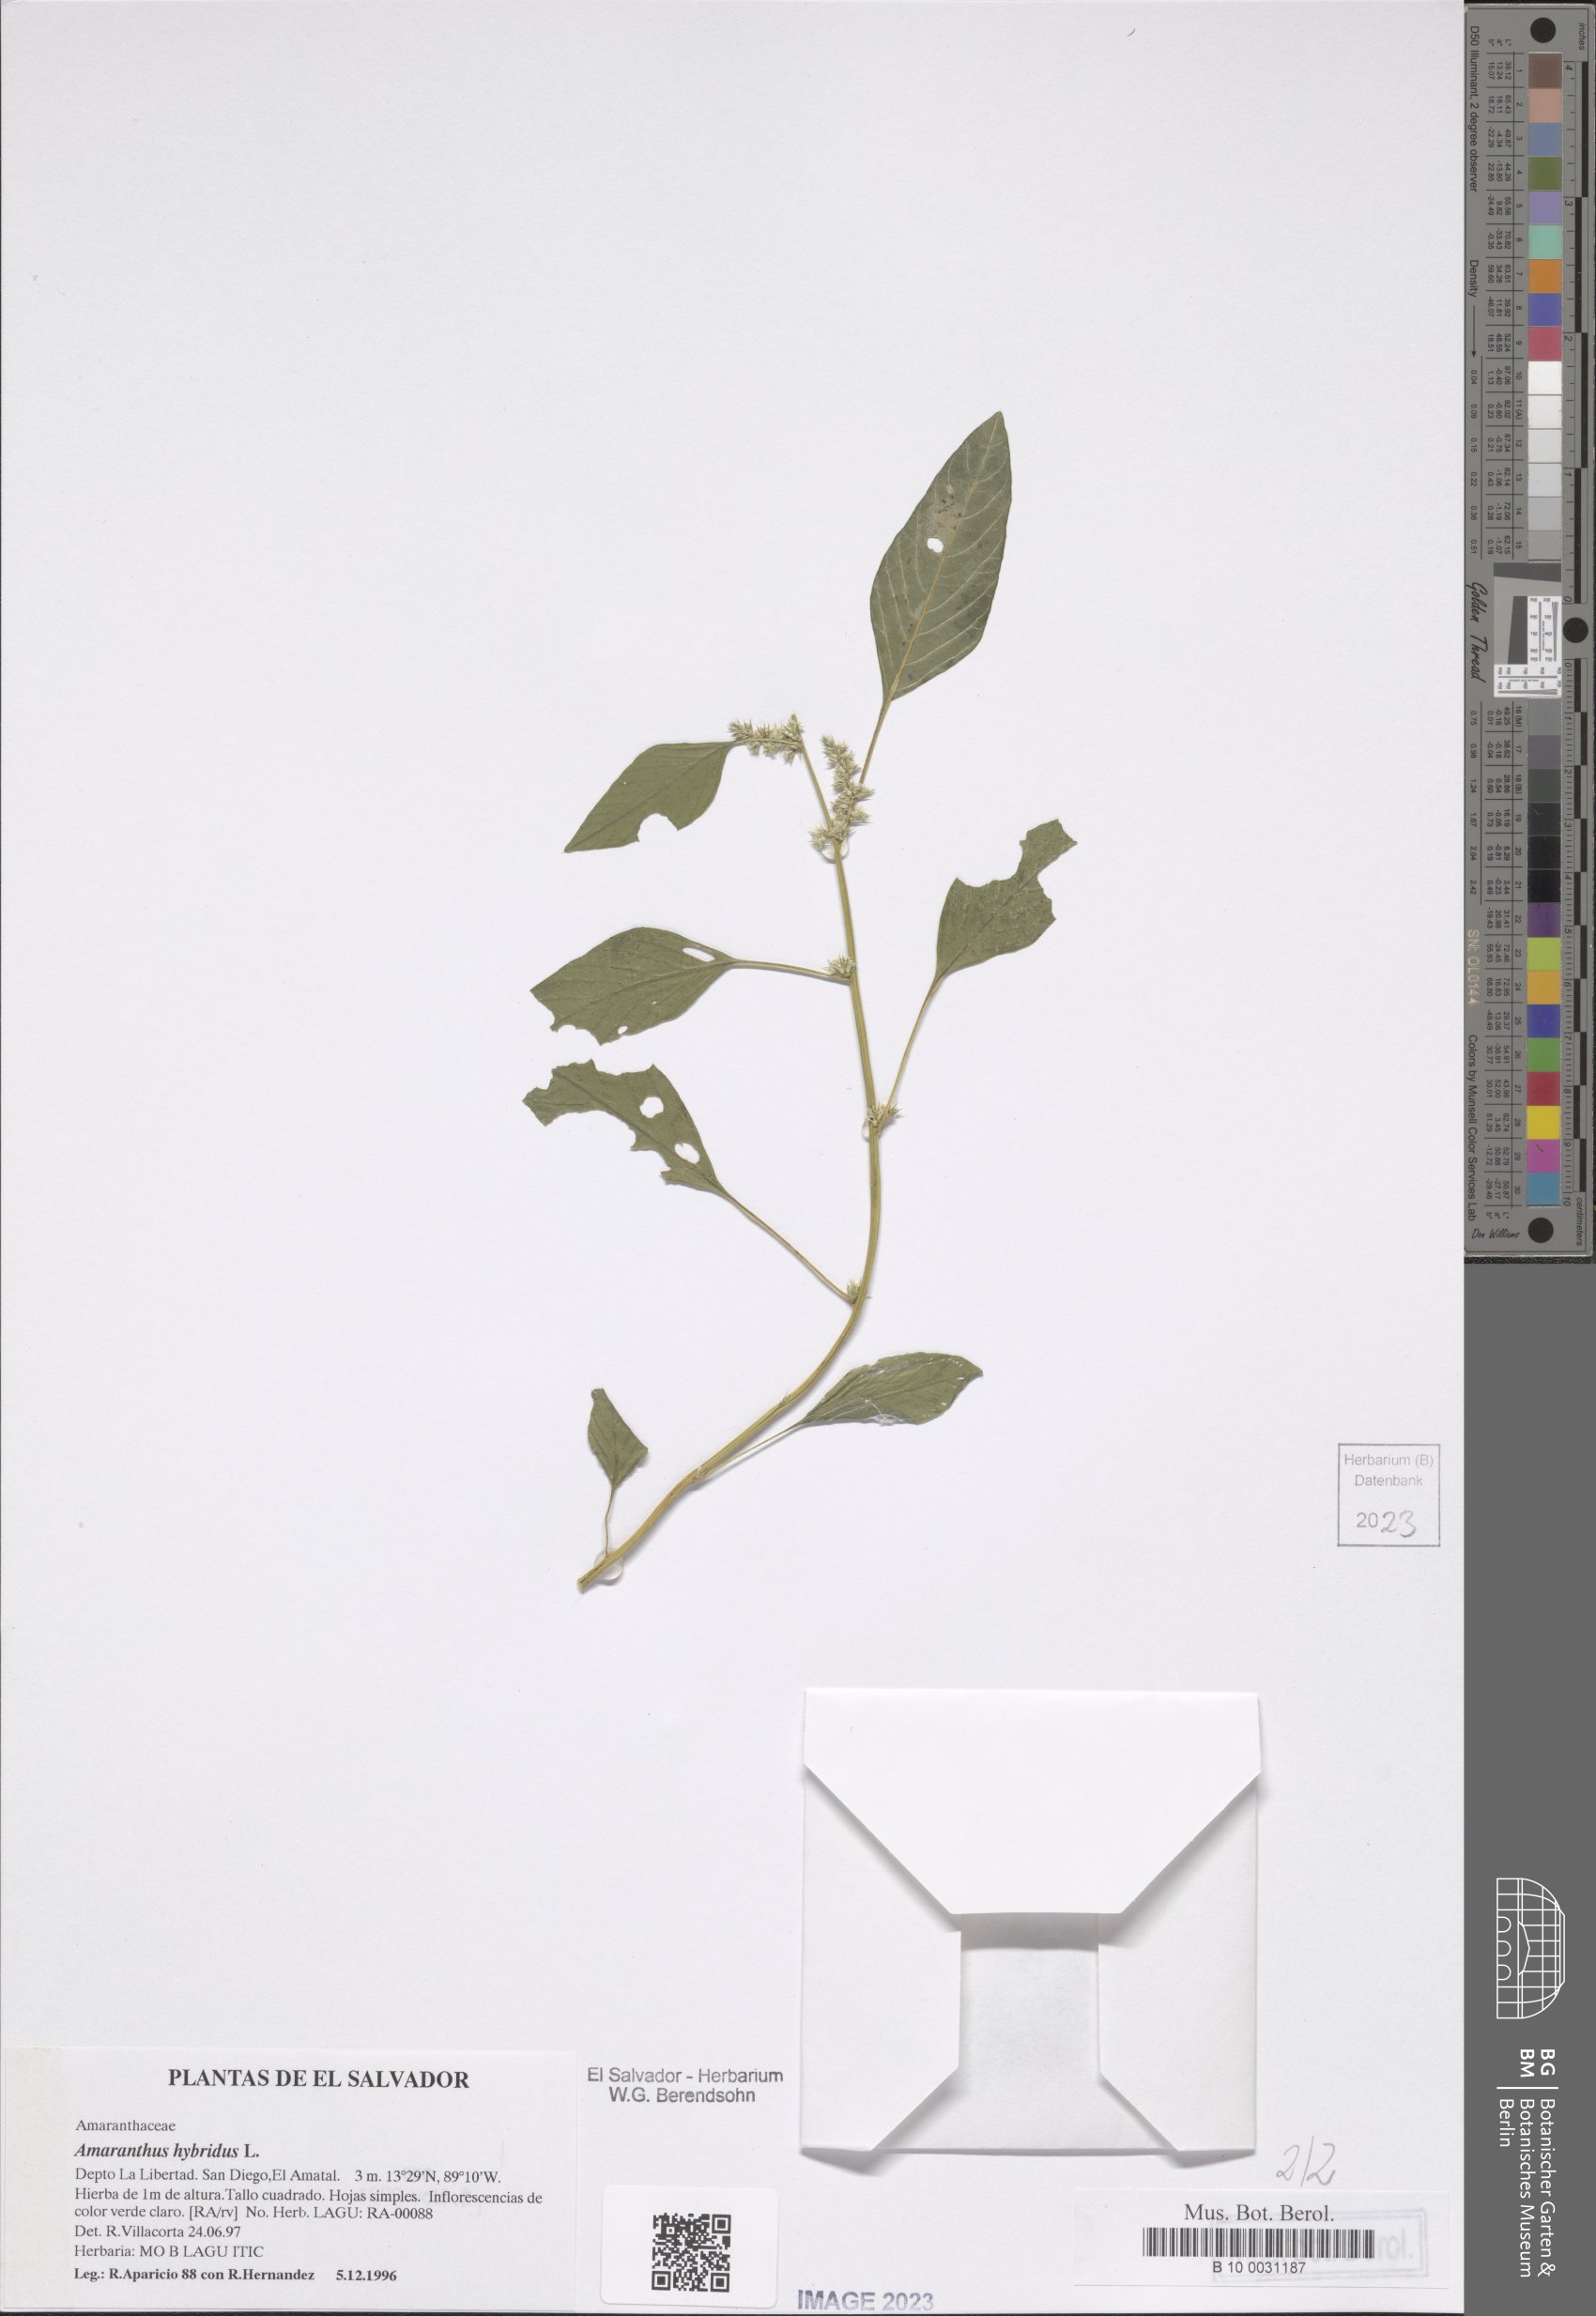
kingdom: Plantae
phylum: Tracheophyta
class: Magnoliopsida
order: Caryophyllales
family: Amaranthaceae
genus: Amaranthus
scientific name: Amaranthus hybridus
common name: Green amaranth
